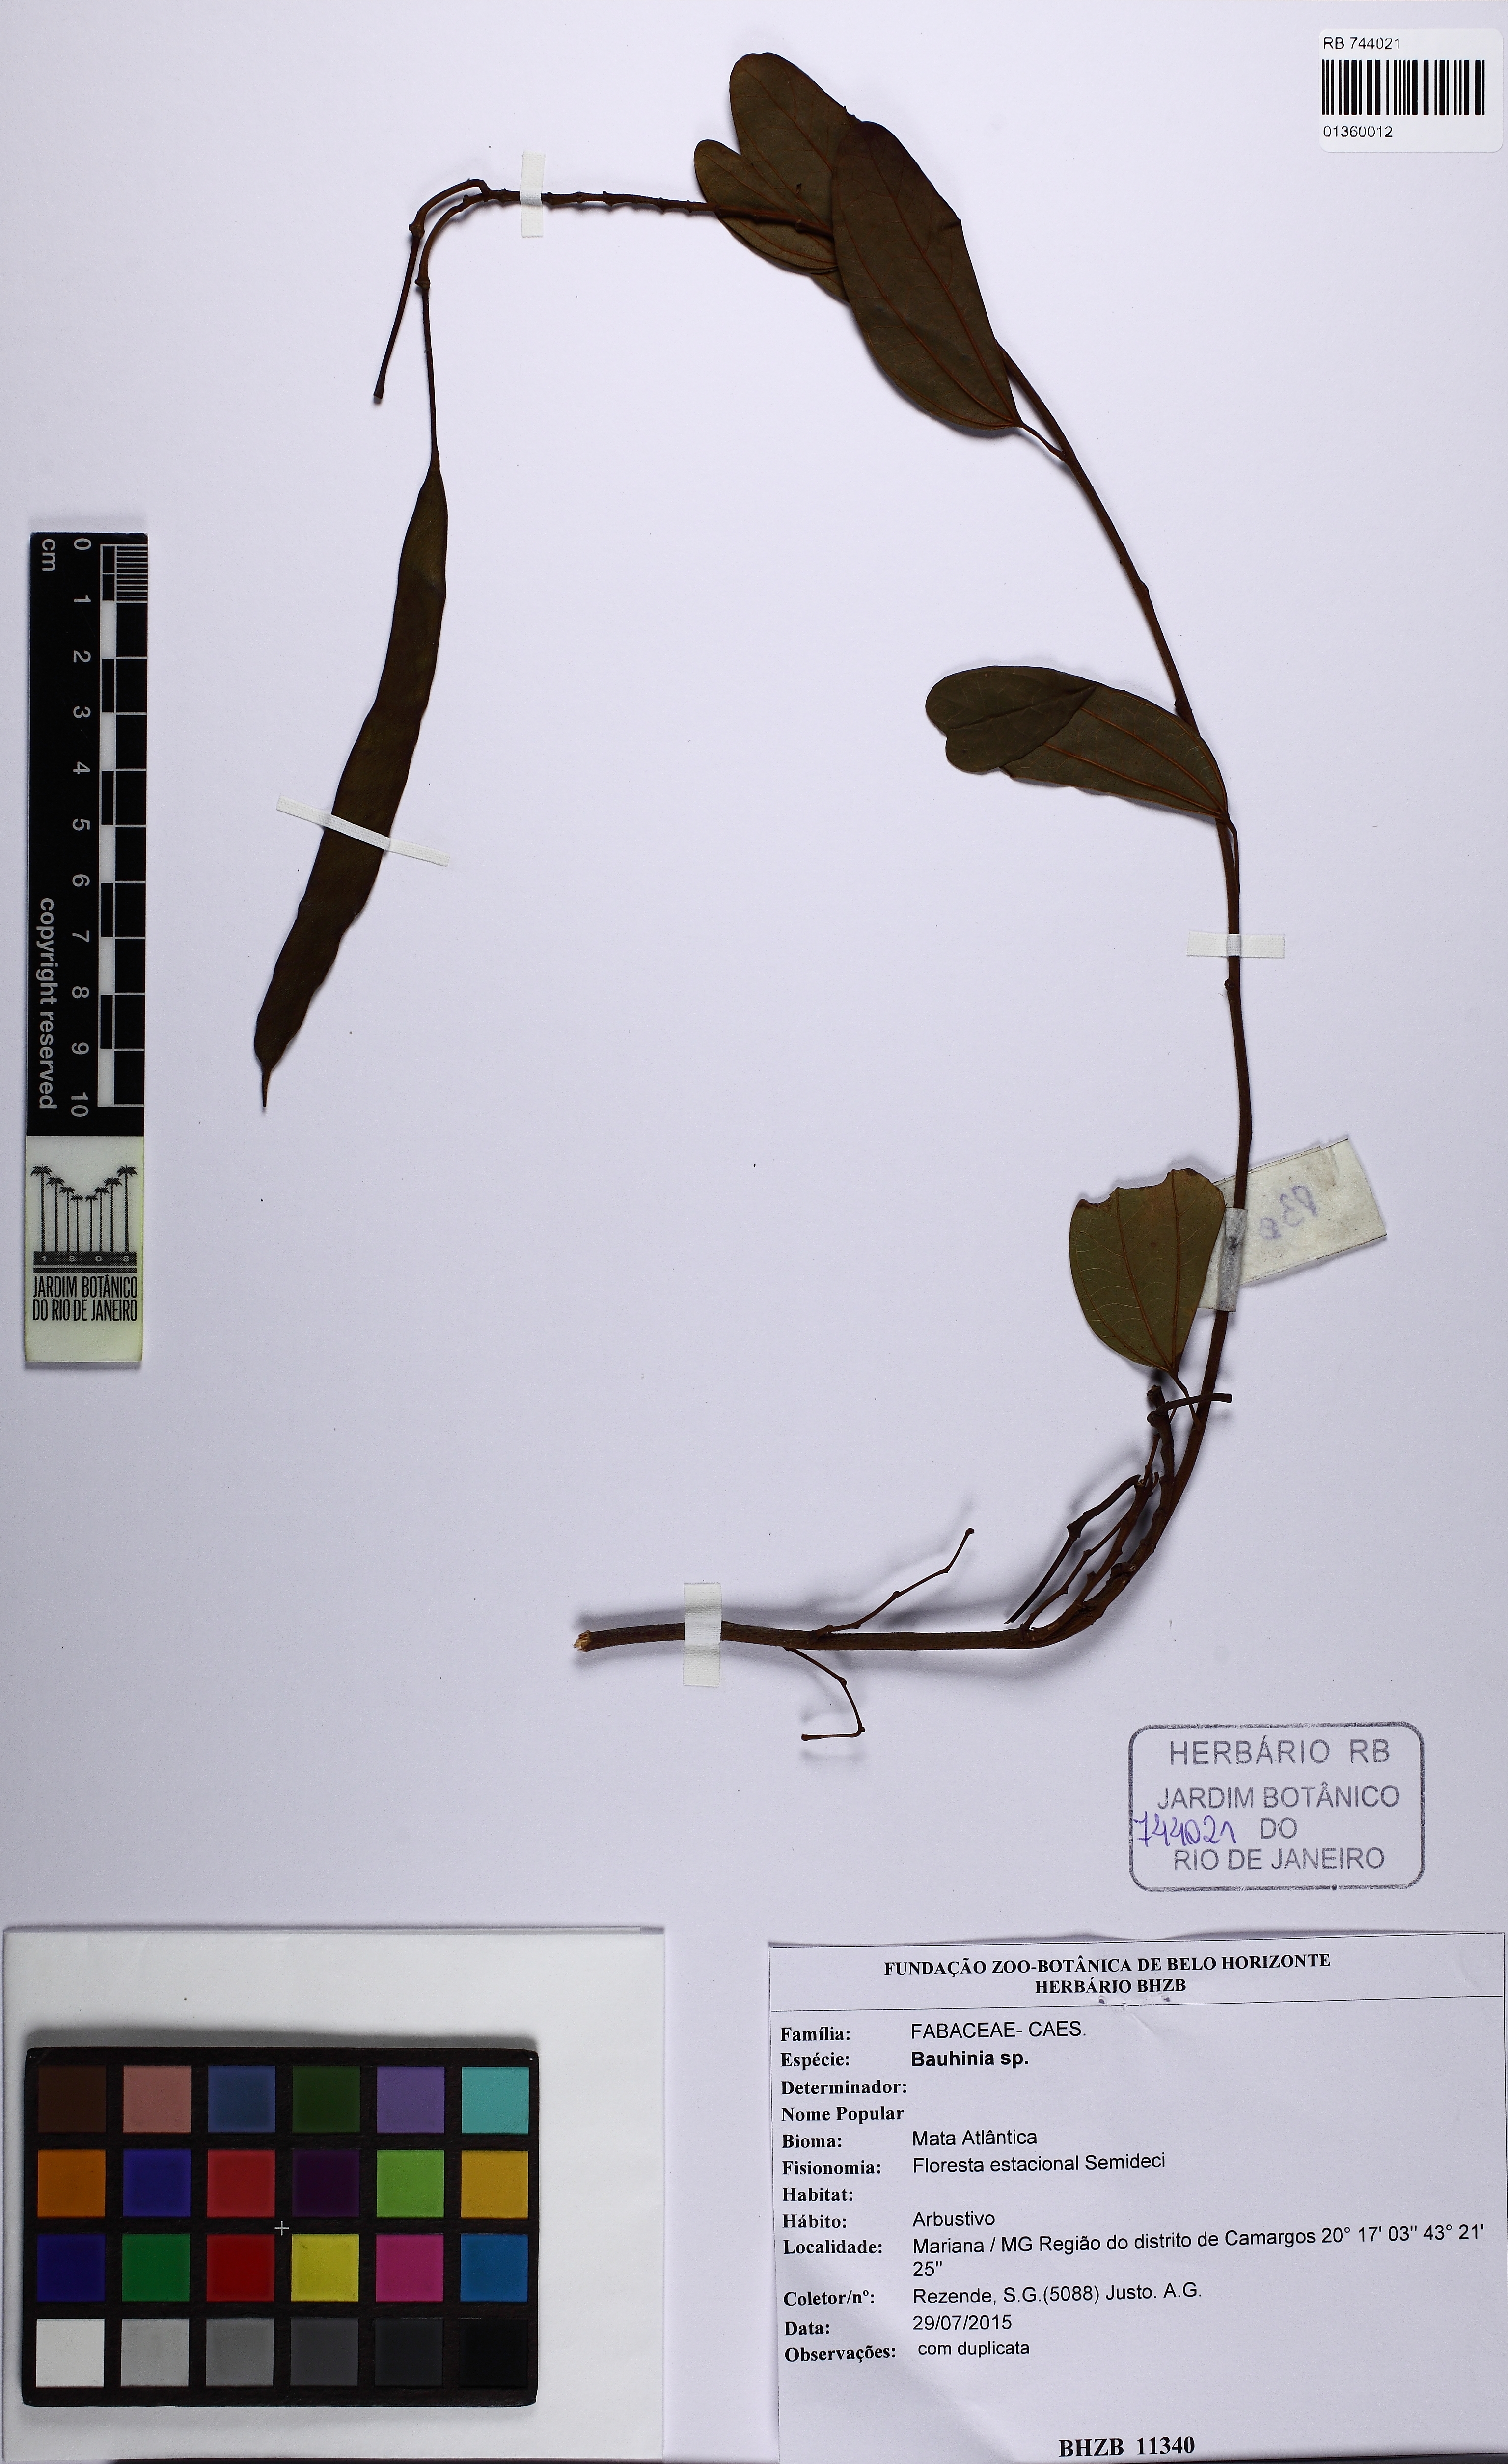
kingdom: Plantae
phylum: Tracheophyta
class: Magnoliopsida
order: Fabales
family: Fabaceae
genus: Bauhinia
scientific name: Bauhinia
